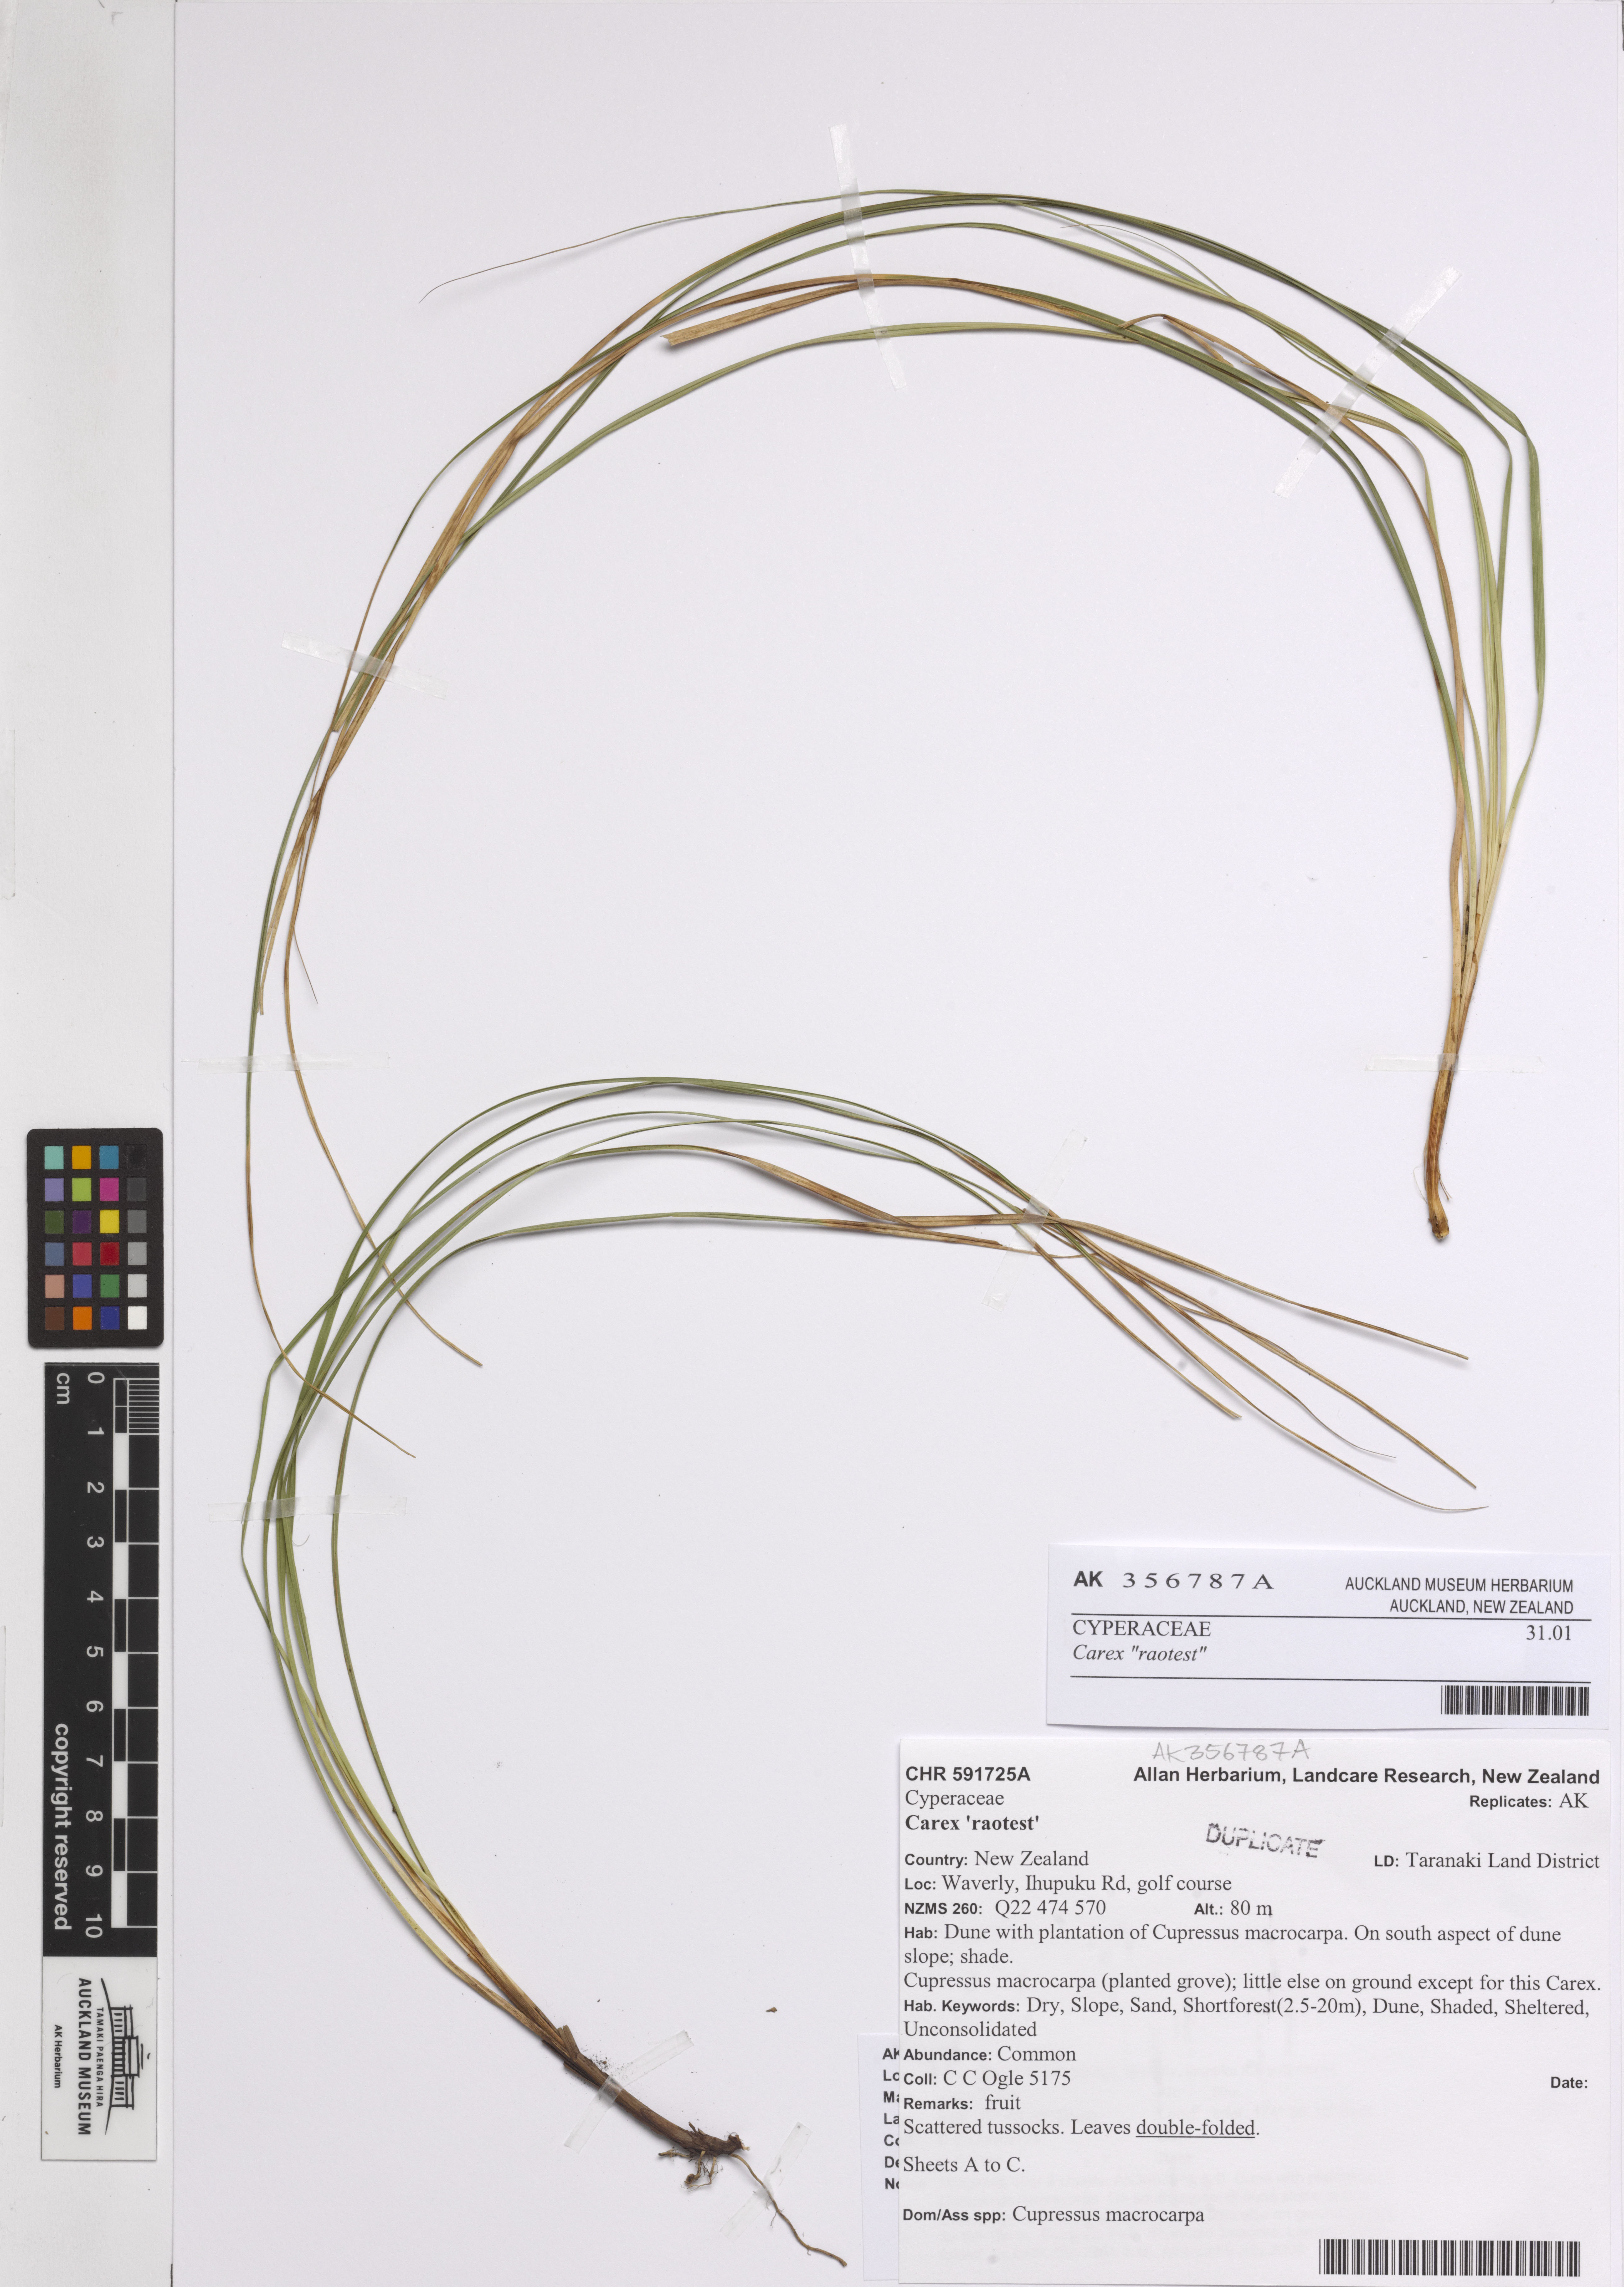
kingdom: Plantae
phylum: Tracheophyta
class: Liliopsida
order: Poales
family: Cyperaceae
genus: Carex
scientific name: Carex
